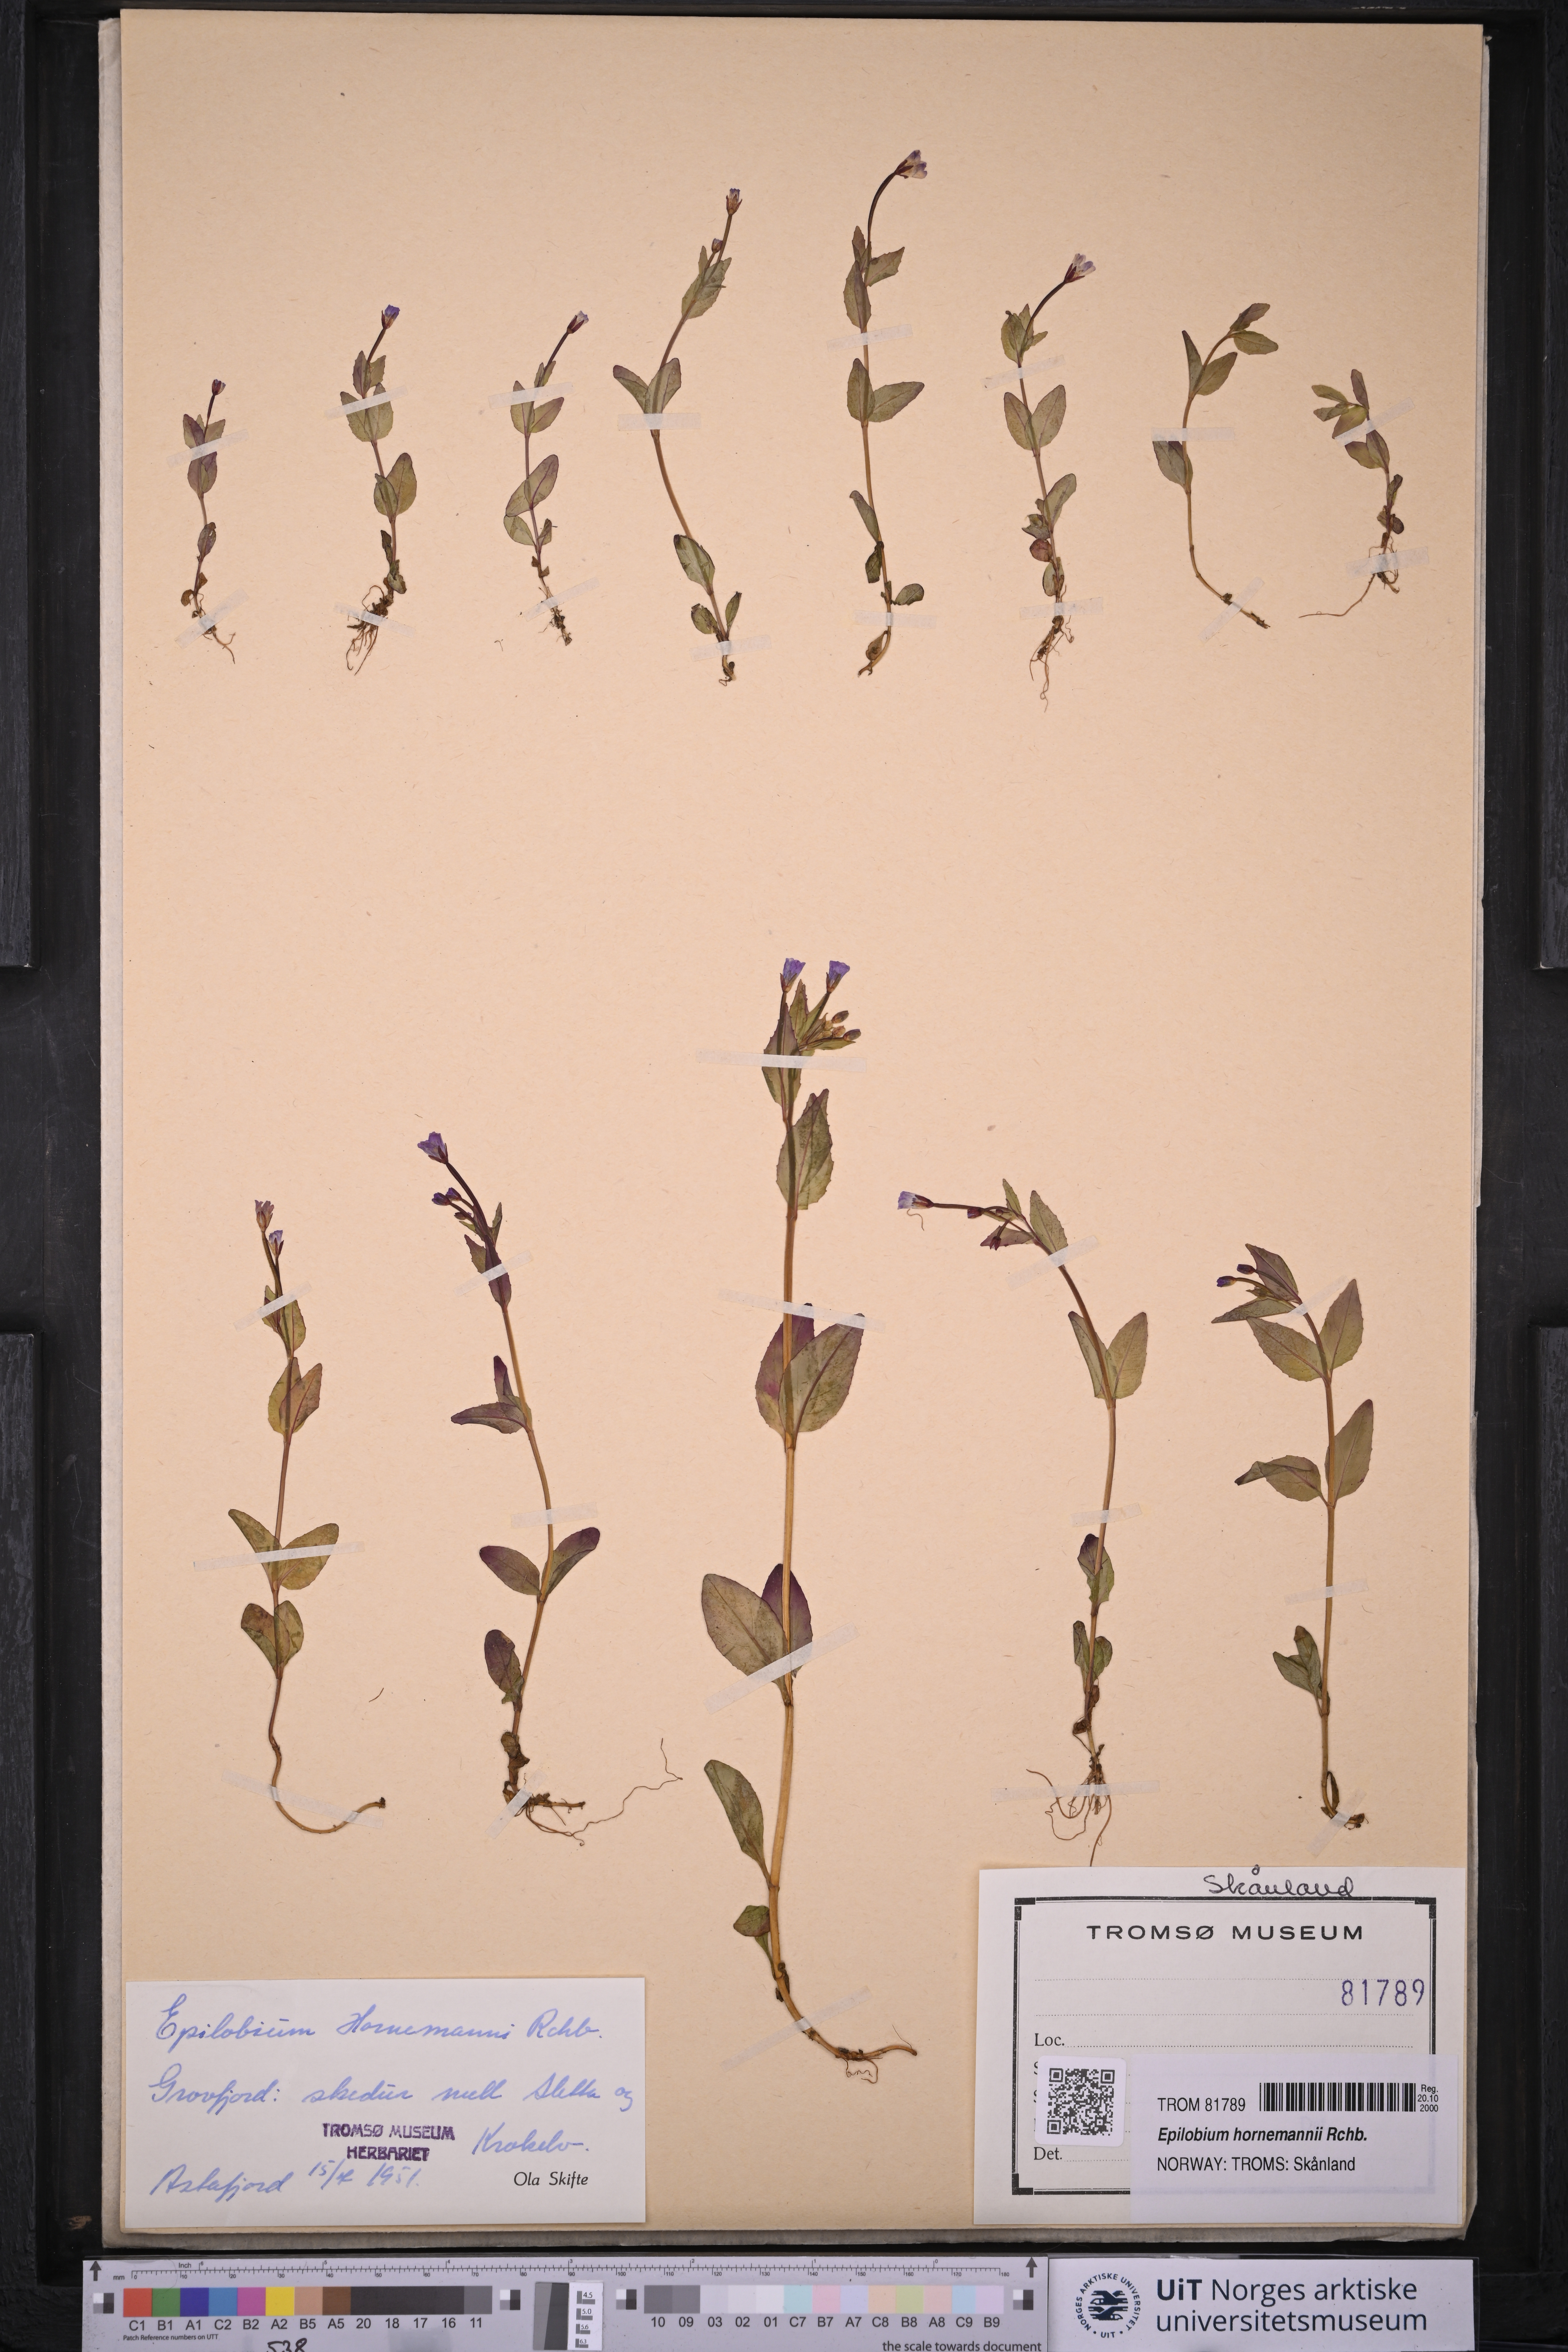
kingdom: Plantae
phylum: Tracheophyta
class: Magnoliopsida
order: Myrtales
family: Onagraceae
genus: Epilobium
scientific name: Epilobium hornemannii
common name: Hornemann's willowherb
